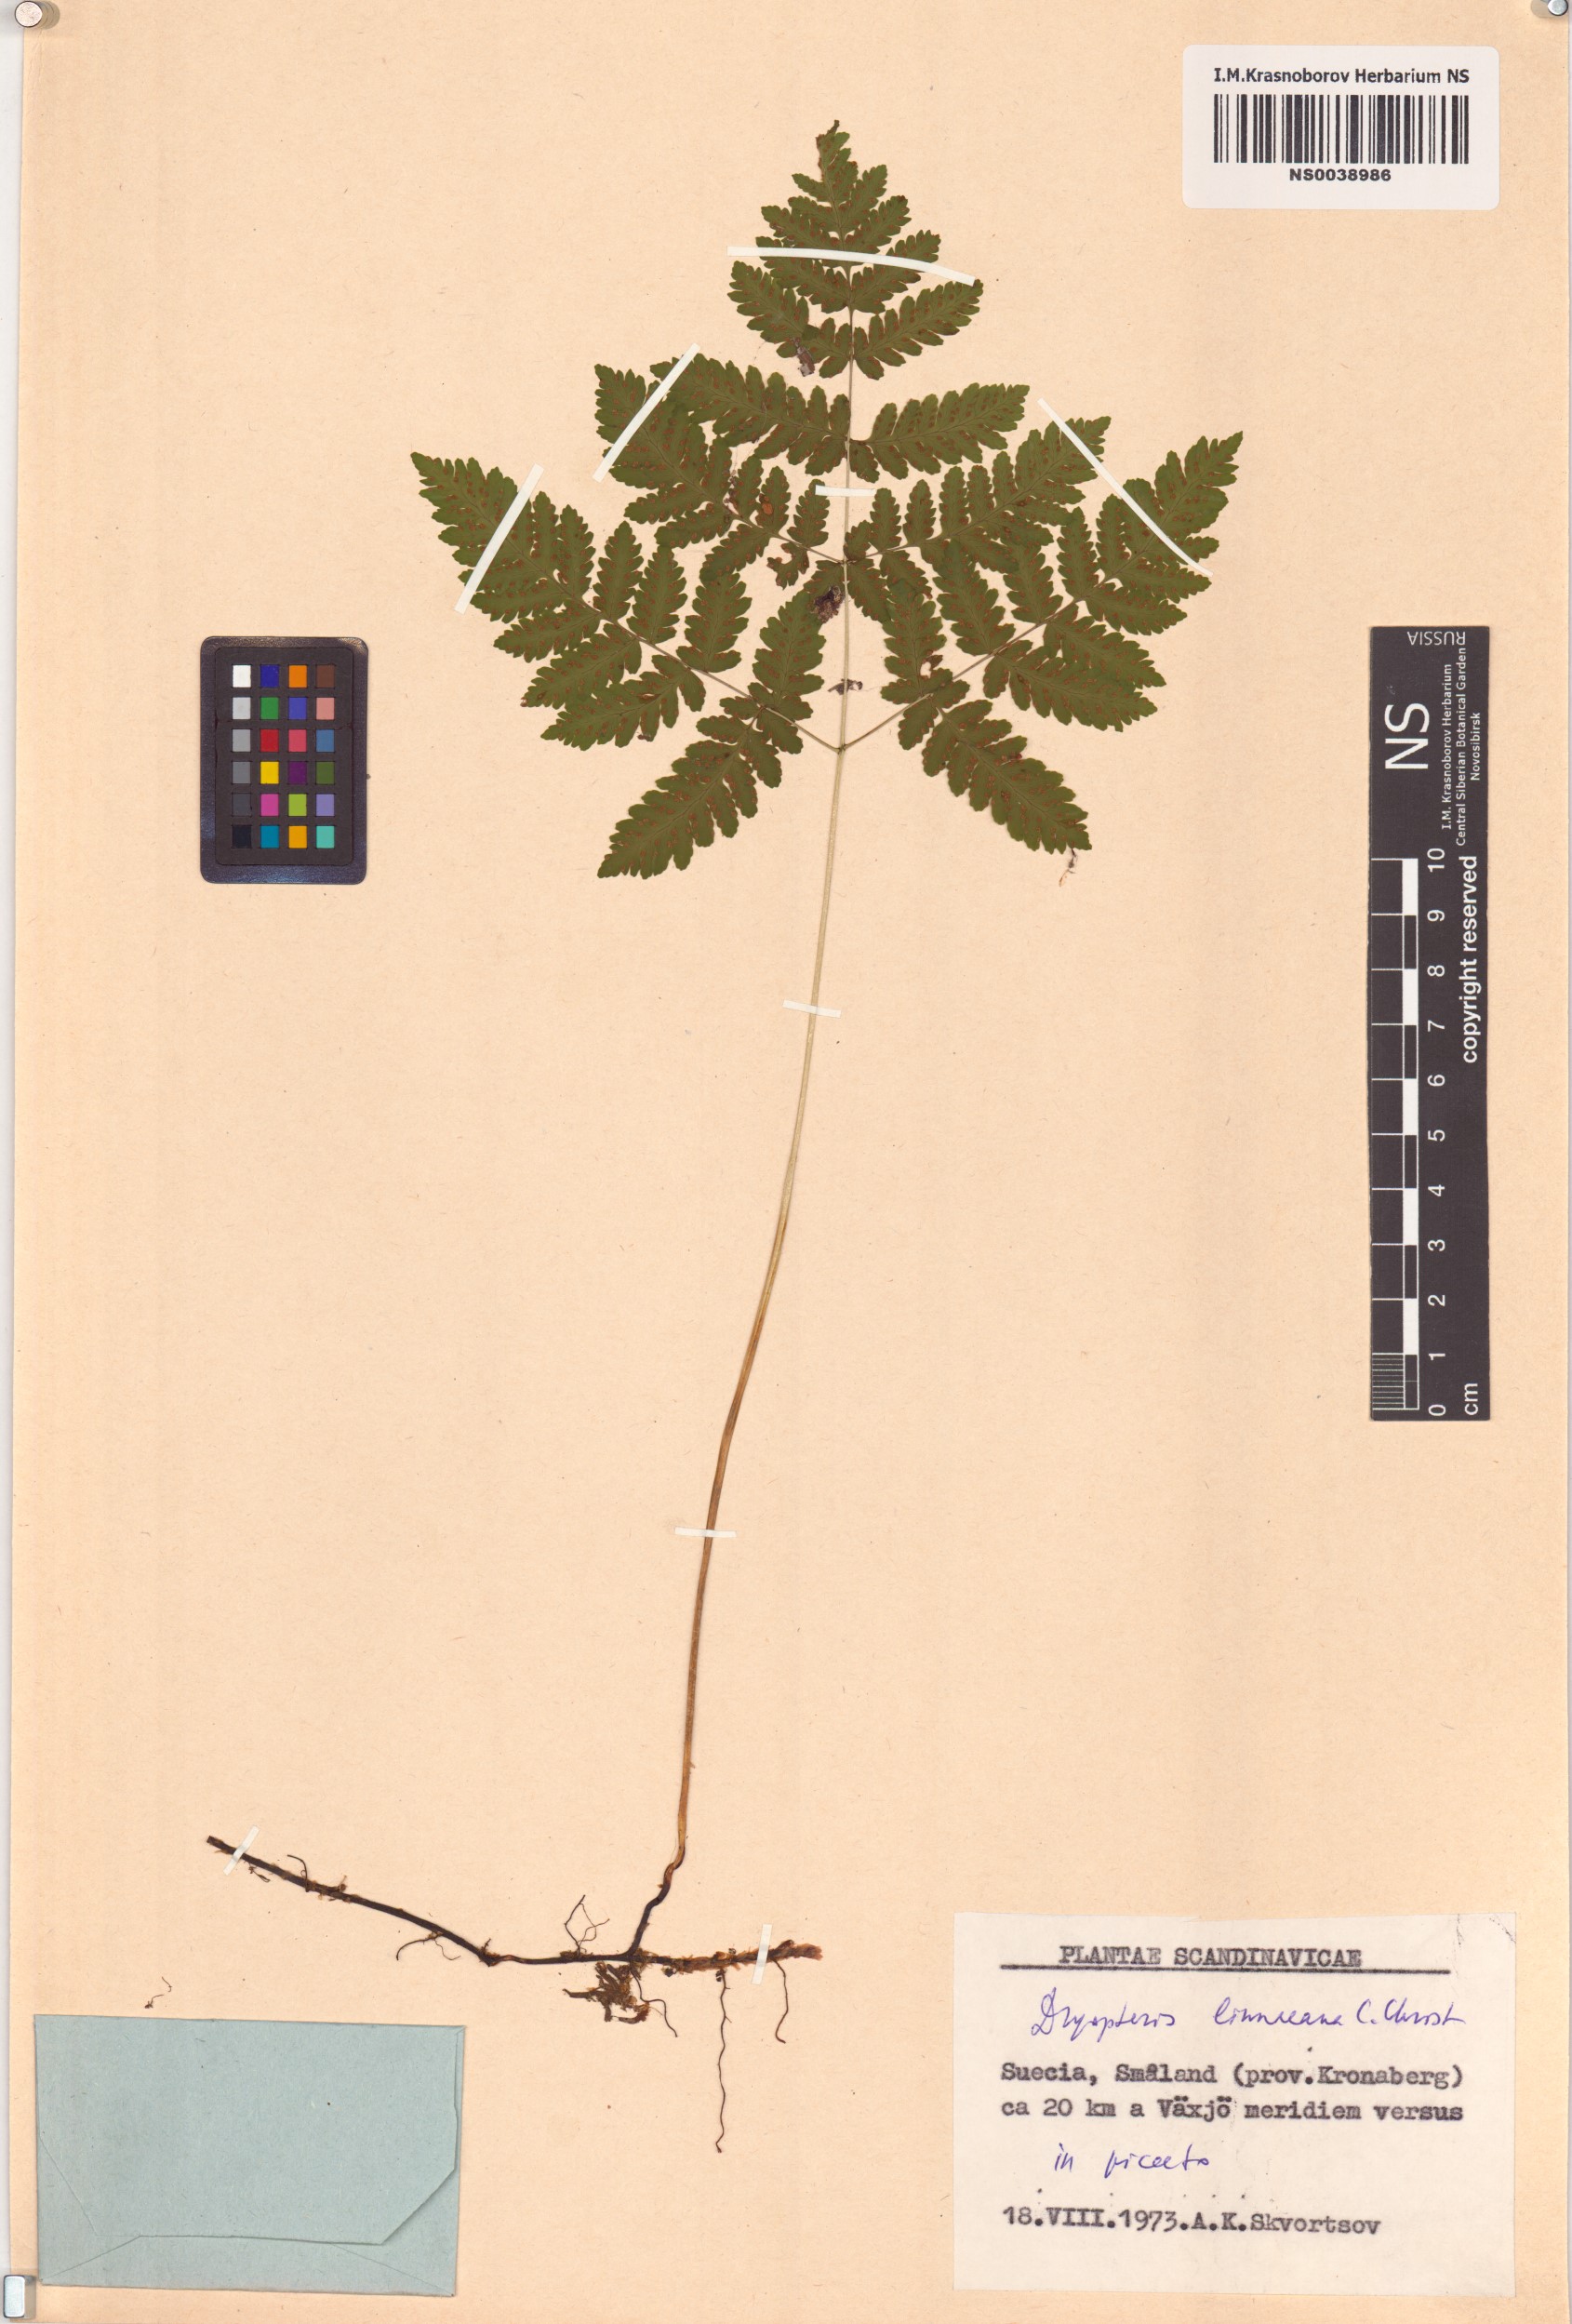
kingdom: Plantae
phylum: Tracheophyta
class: Polypodiopsida
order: Polypodiales
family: Cystopteridaceae
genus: Gymnocarpium
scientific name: Gymnocarpium dryopteris
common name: Oak fern
